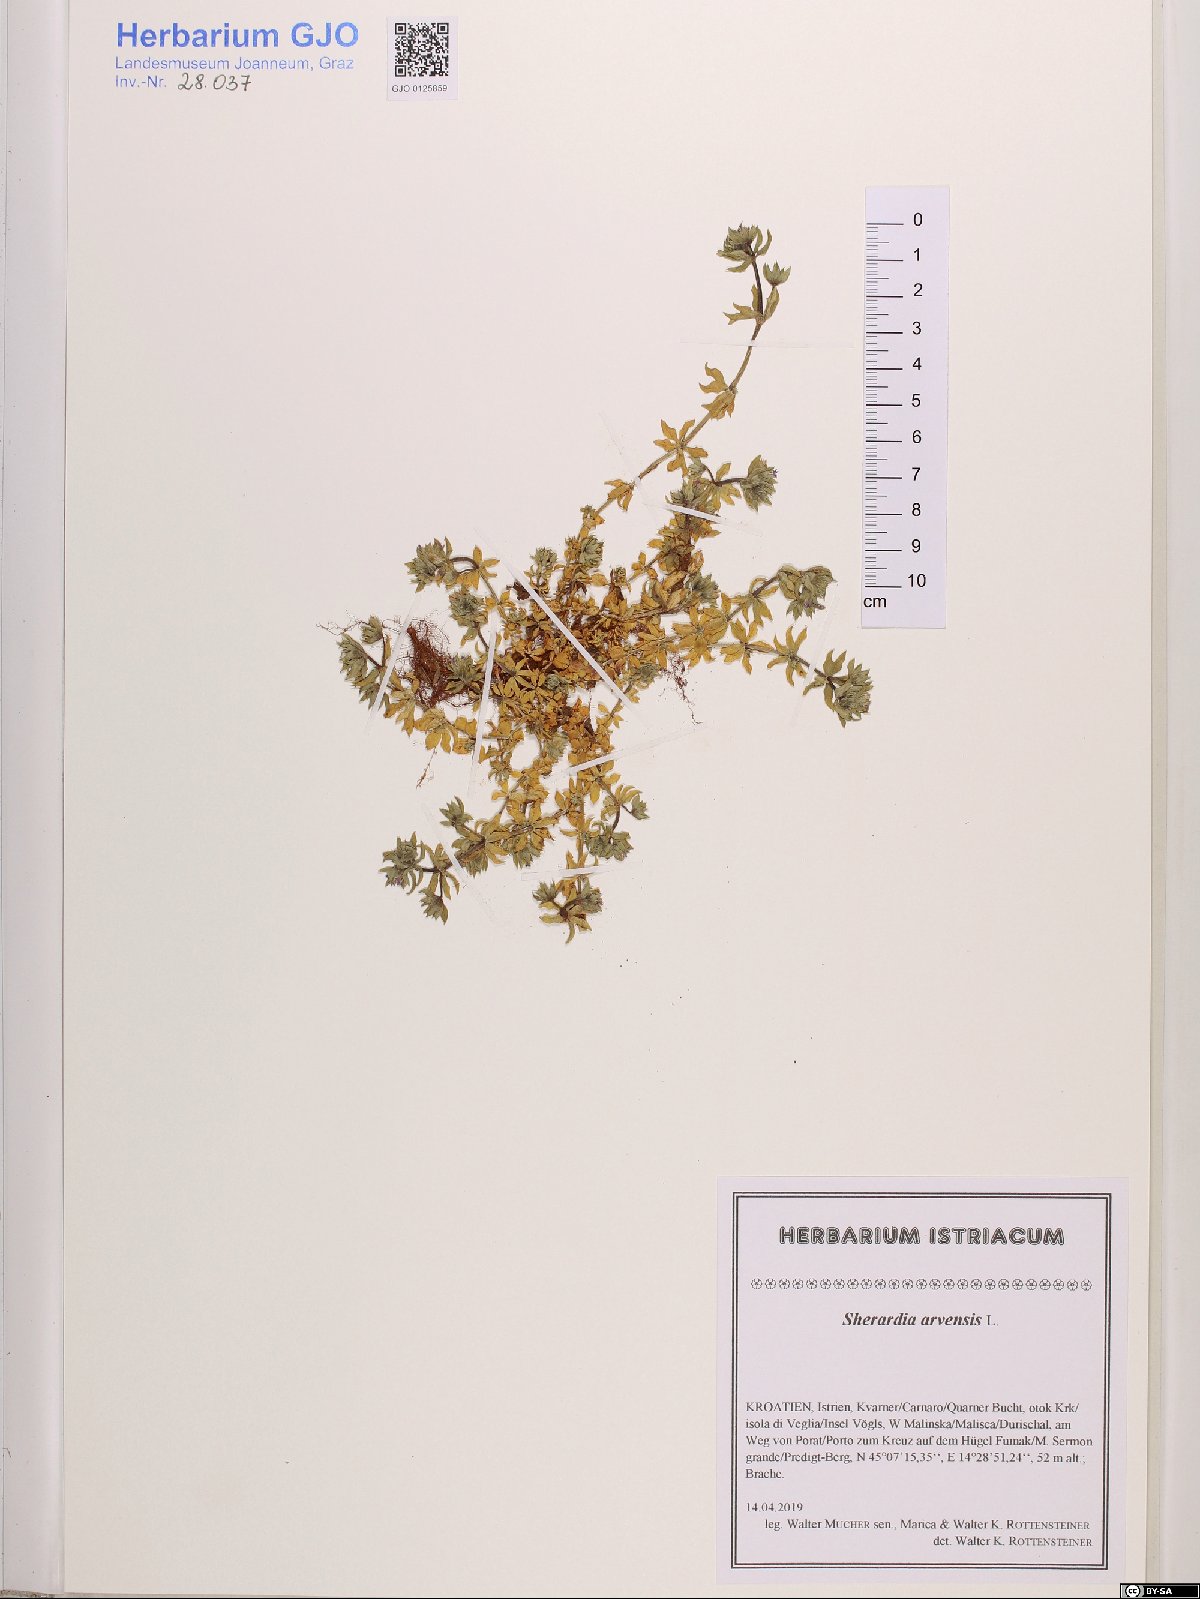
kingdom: Plantae
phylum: Tracheophyta
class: Magnoliopsida
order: Gentianales
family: Rubiaceae
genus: Sherardia
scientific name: Sherardia arvensis
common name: Field madder
